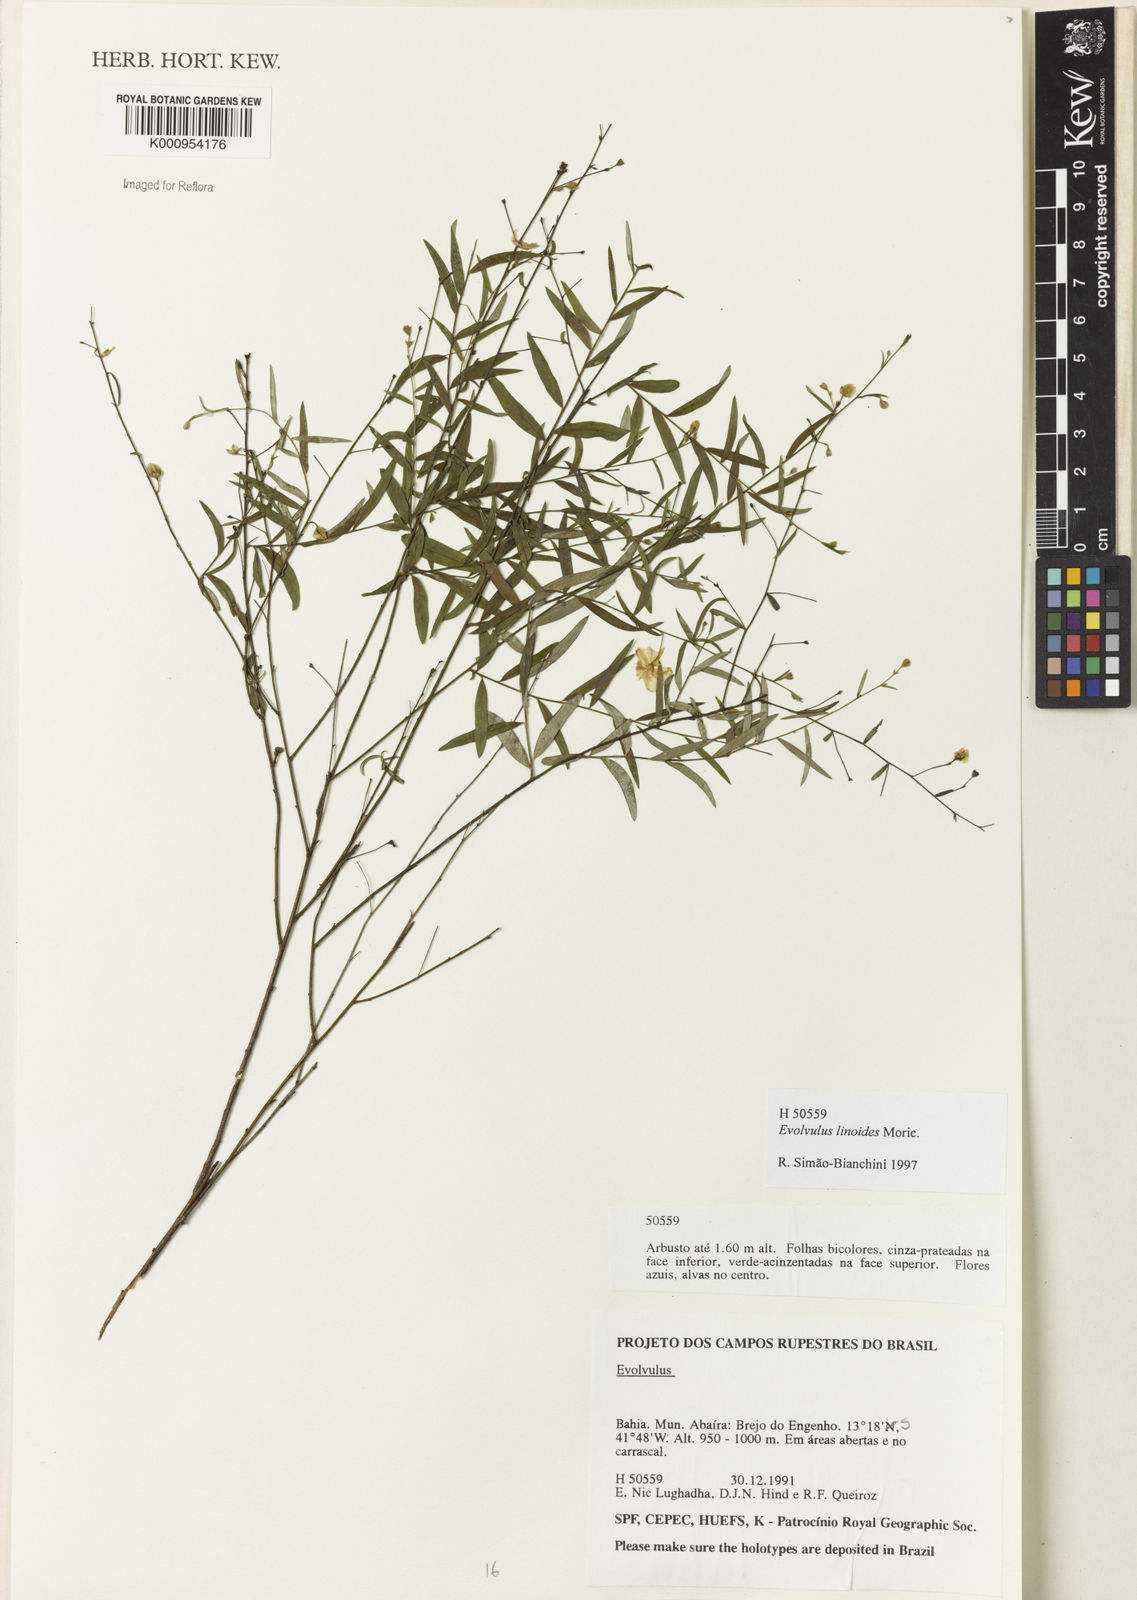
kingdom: Plantae
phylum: Tracheophyta
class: Magnoliopsida
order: Solanales
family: Convolvulaceae
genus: Evolvulus
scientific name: Evolvulus linoides
